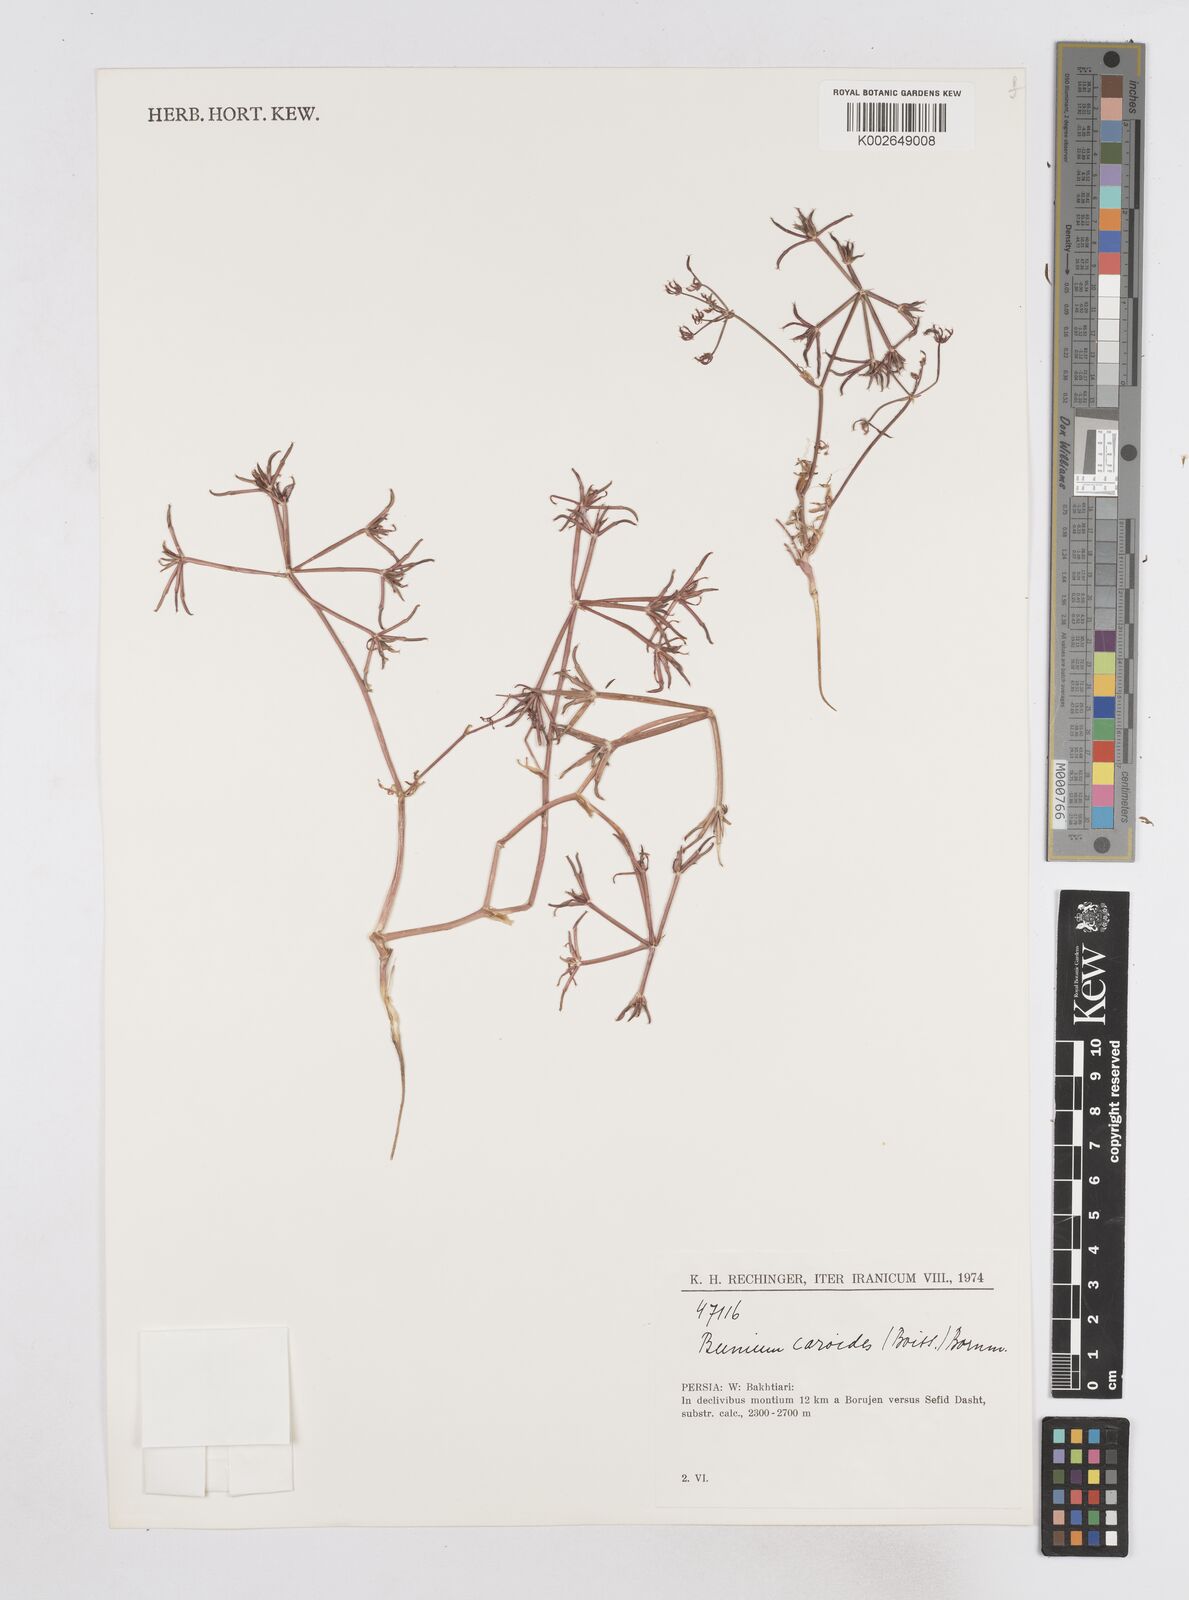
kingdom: Plantae
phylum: Tracheophyta
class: Magnoliopsida
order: Apiales
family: Apiaceae
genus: Elwendia
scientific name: Elwendia caroides
